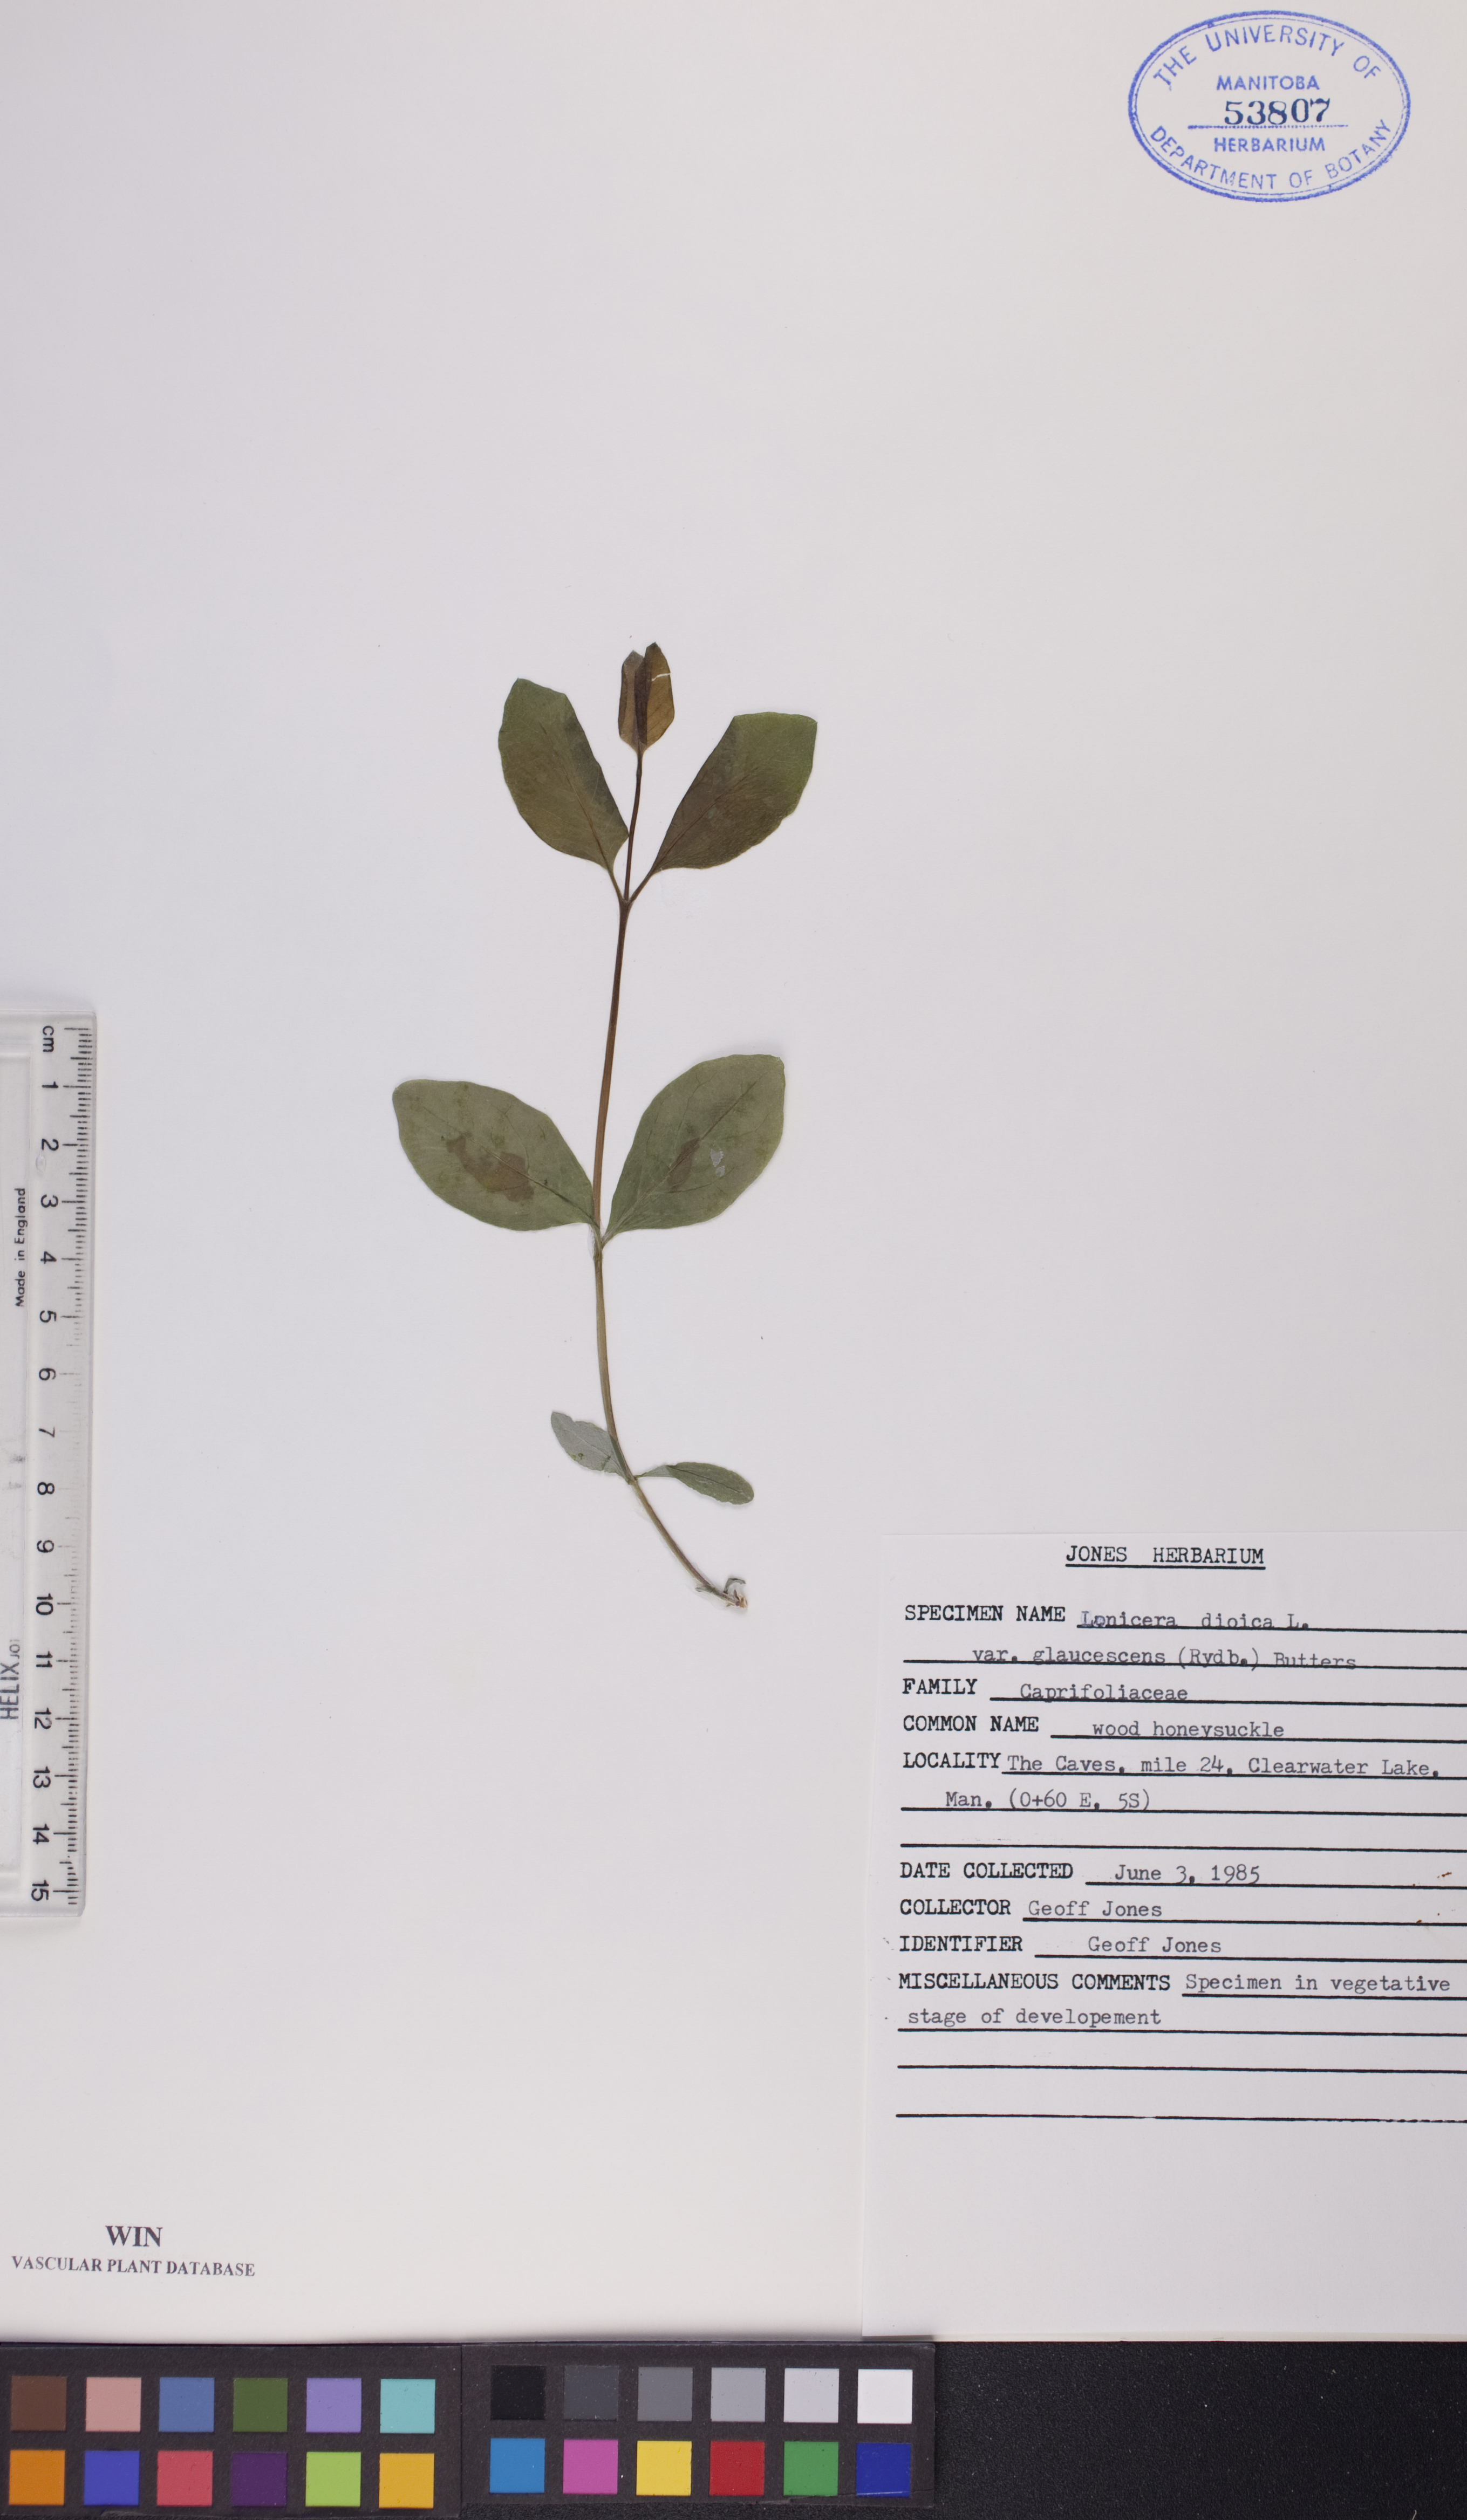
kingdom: Plantae
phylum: Tracheophyta
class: Magnoliopsida
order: Dipsacales
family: Caprifoliaceae
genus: Lonicera
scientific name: Lonicera dioica
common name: Limber honeysuckle
